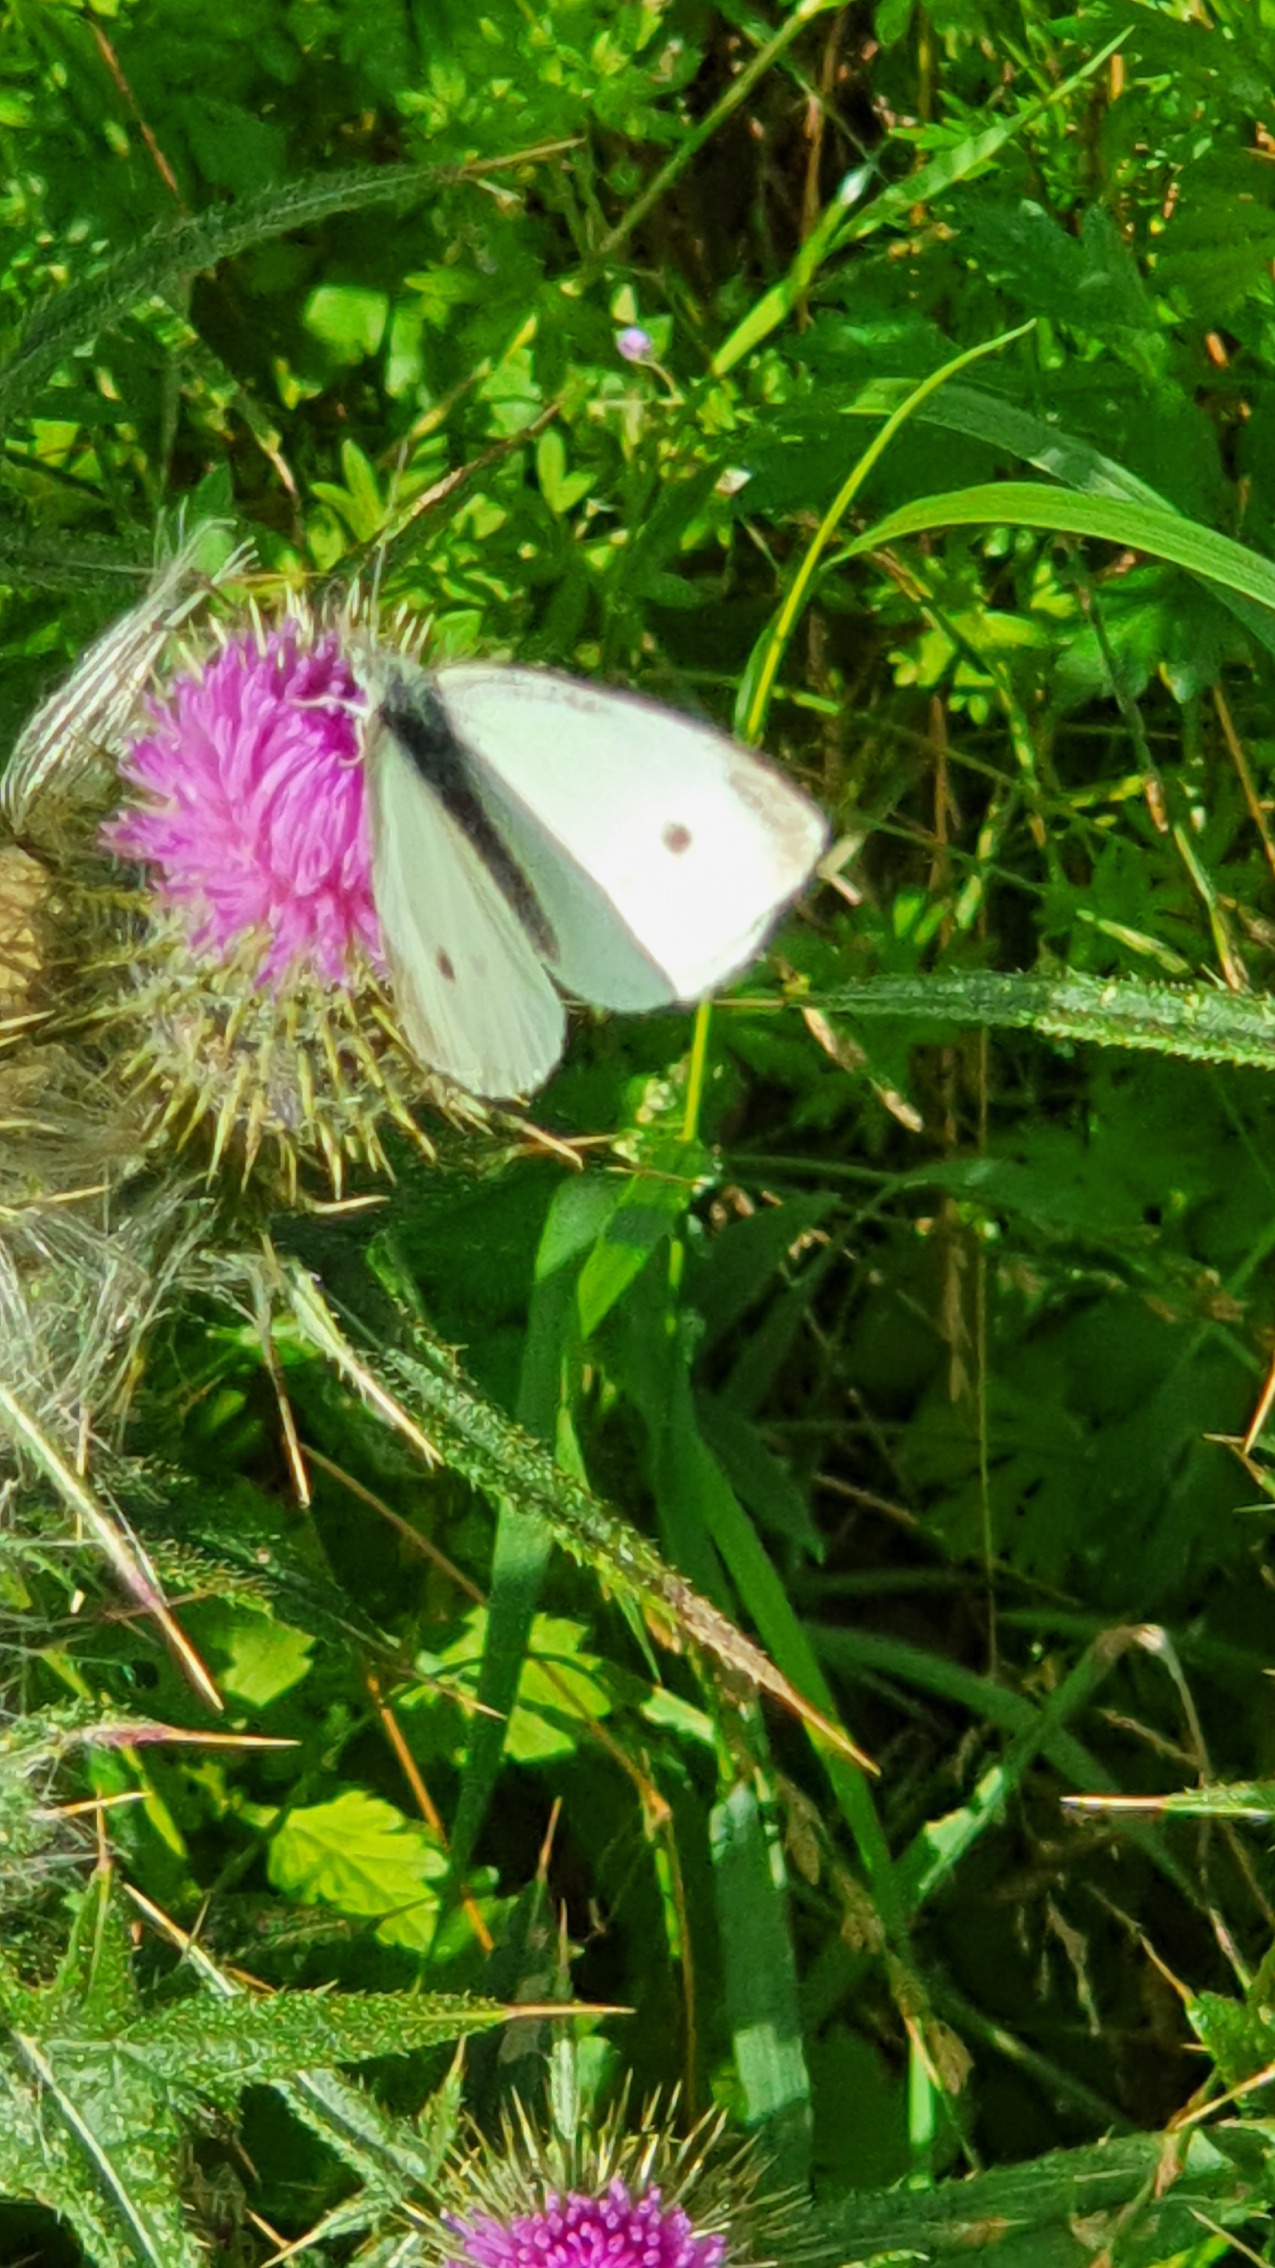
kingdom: Animalia
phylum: Arthropoda
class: Insecta
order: Lepidoptera
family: Pieridae
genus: Pieris
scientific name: Pieris rapae
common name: Lille kålsommerfugl
